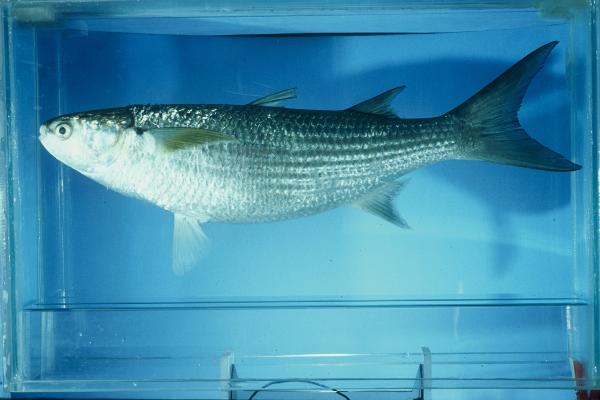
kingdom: Animalia
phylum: Chordata
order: Mugiliformes
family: Mugilidae
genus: Crenimugil
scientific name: Crenimugil buchanani
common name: Bluetail mullet
